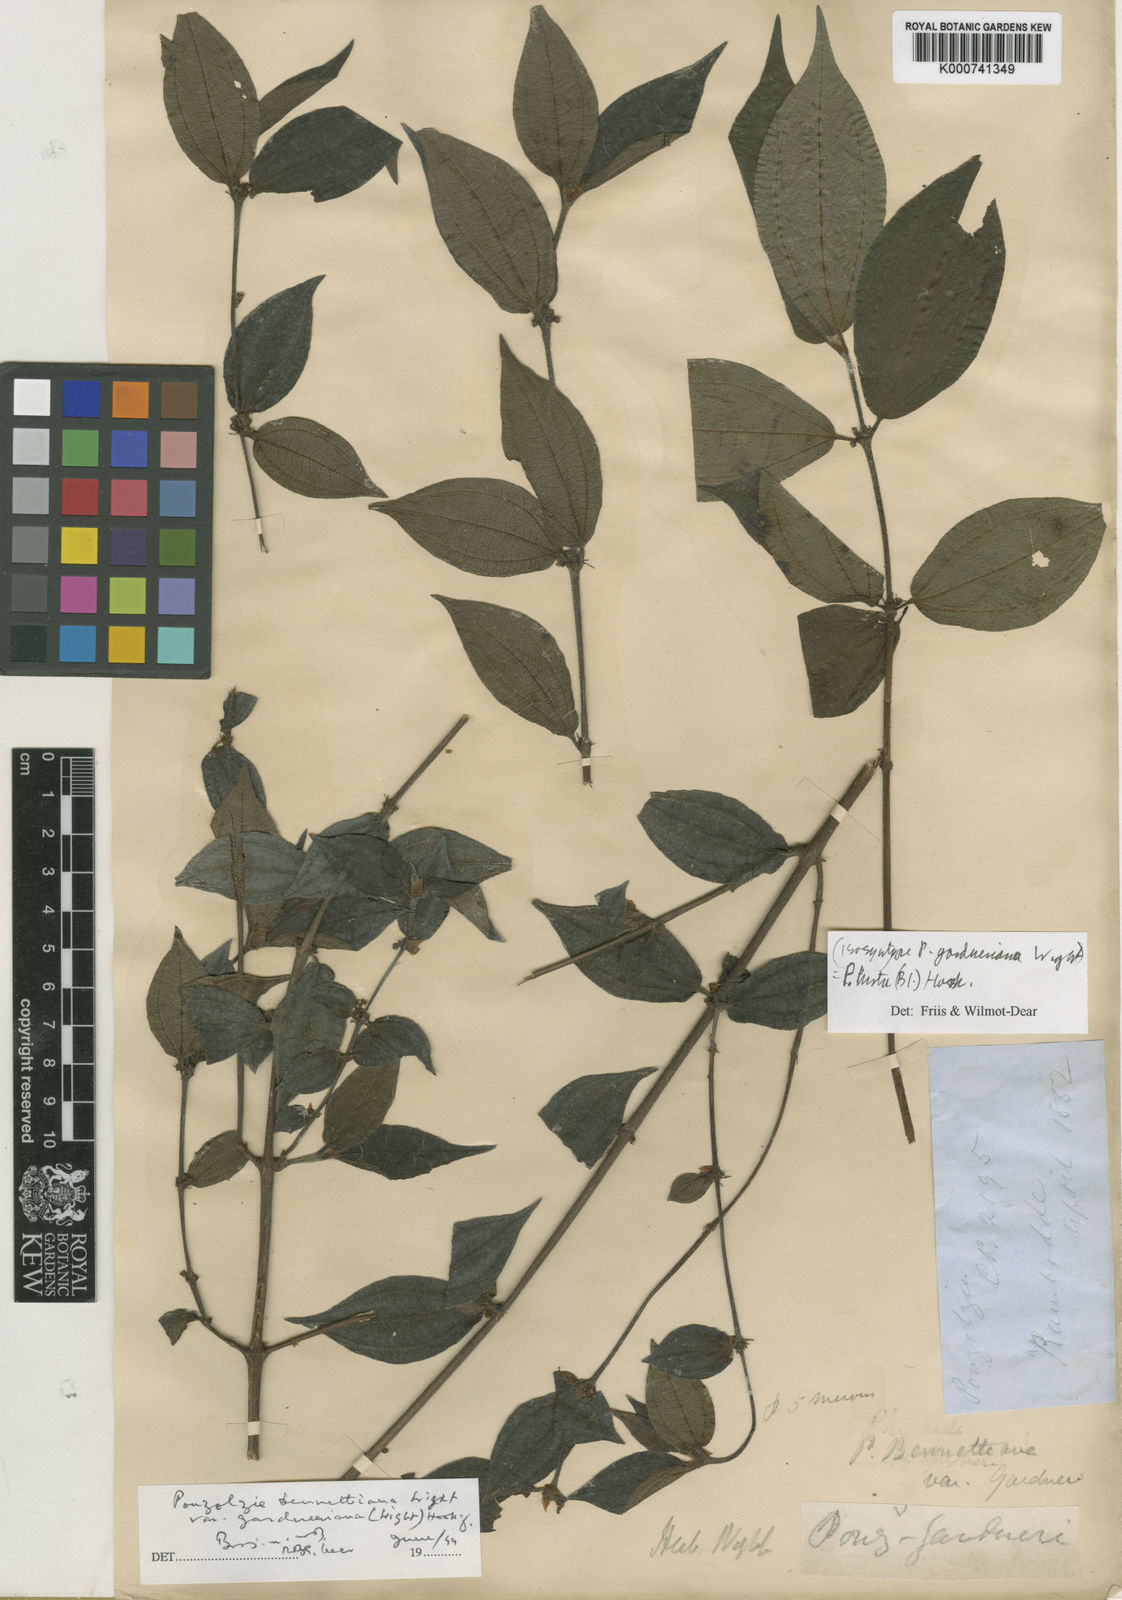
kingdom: Plantae
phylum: Tracheophyta
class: Magnoliopsida
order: Rosales
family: Urticaceae
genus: Gonostegia
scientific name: Gonostegia triandra
